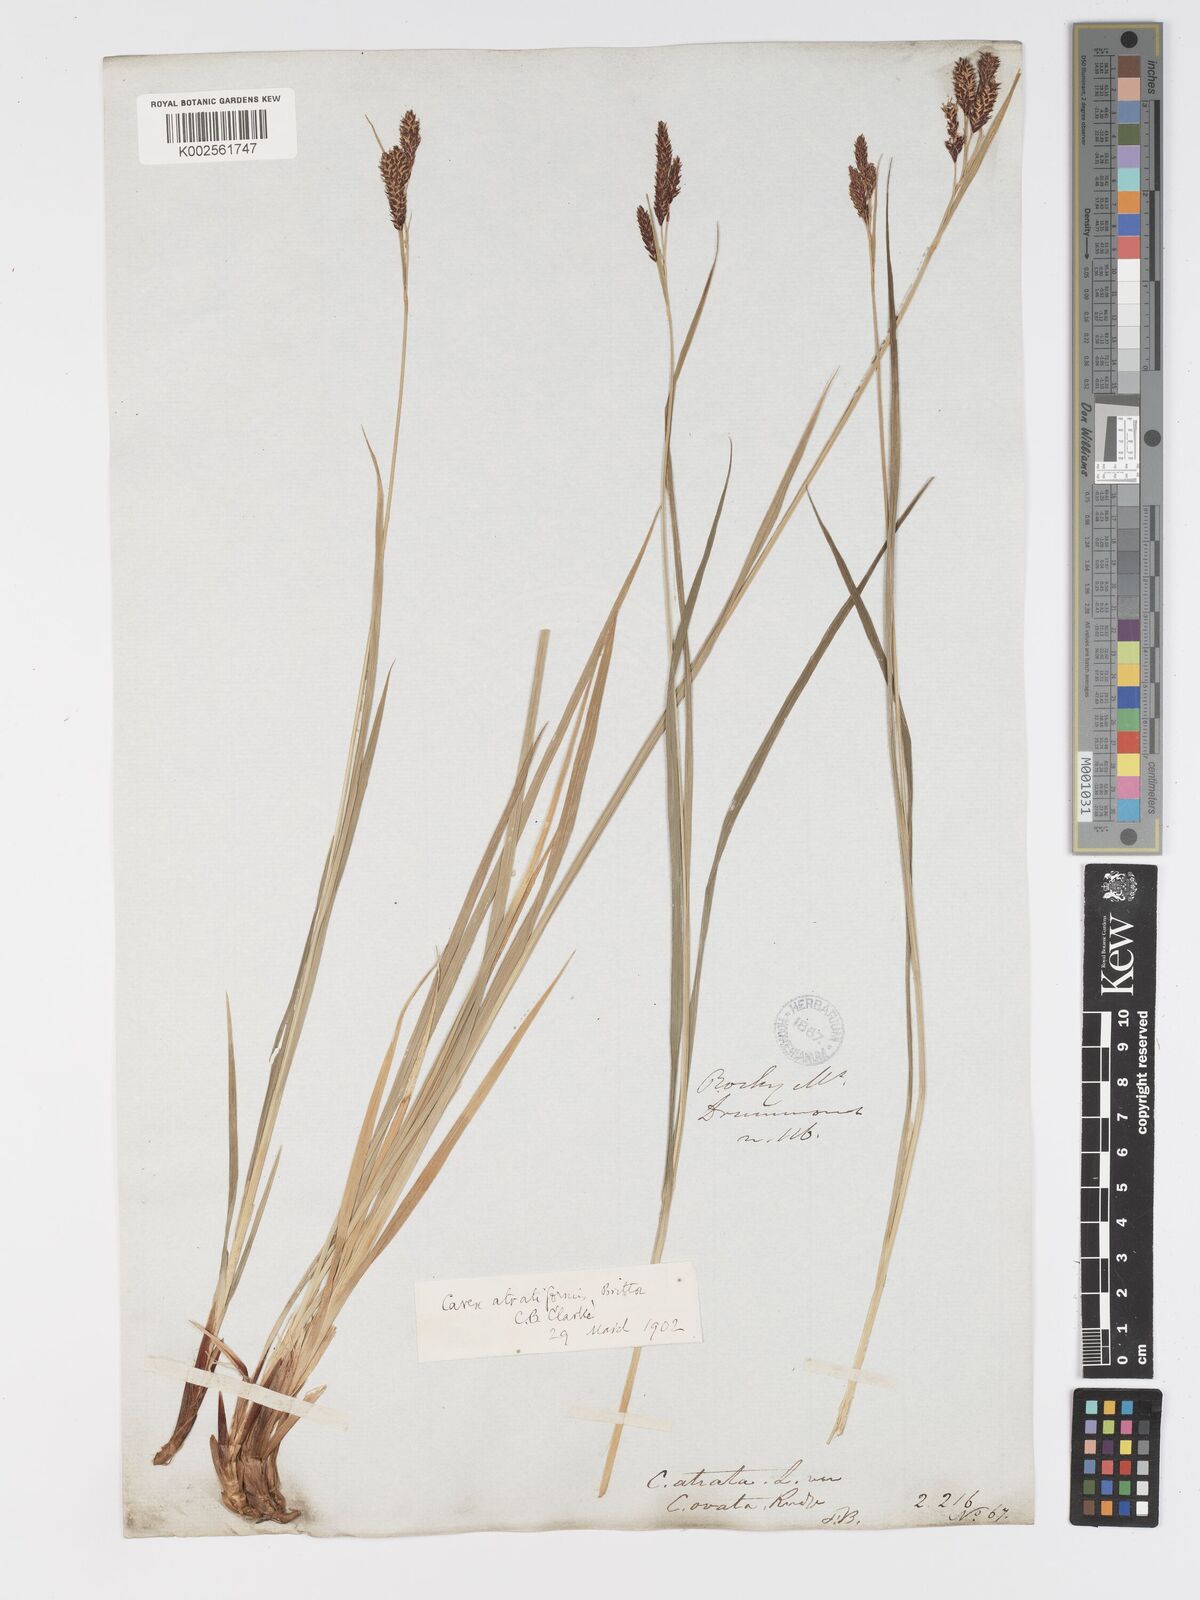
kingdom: Plantae
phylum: Tracheophyta
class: Liliopsida
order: Poales
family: Cyperaceae
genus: Carex
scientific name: Carex atratiformis
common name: Black sedge
